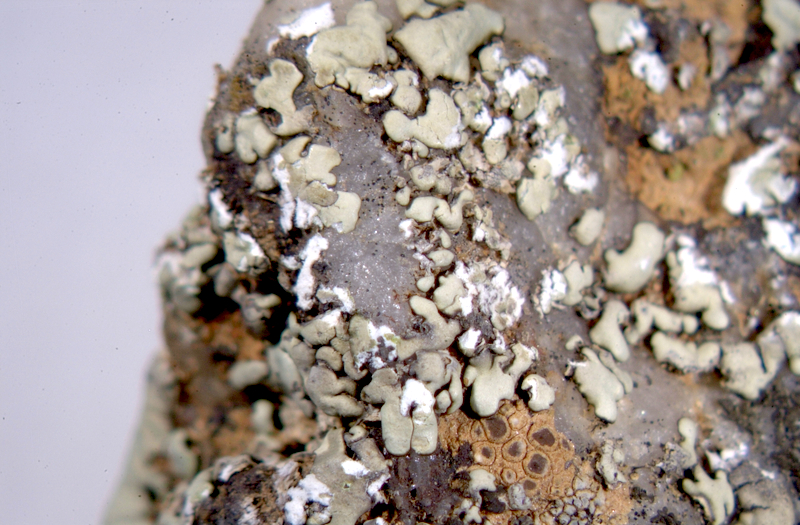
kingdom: Fungi
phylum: Ascomycota
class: Lecanoromycetes
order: Acarosporales
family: Acarosporaceae
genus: Acarospora
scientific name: Acarospora
